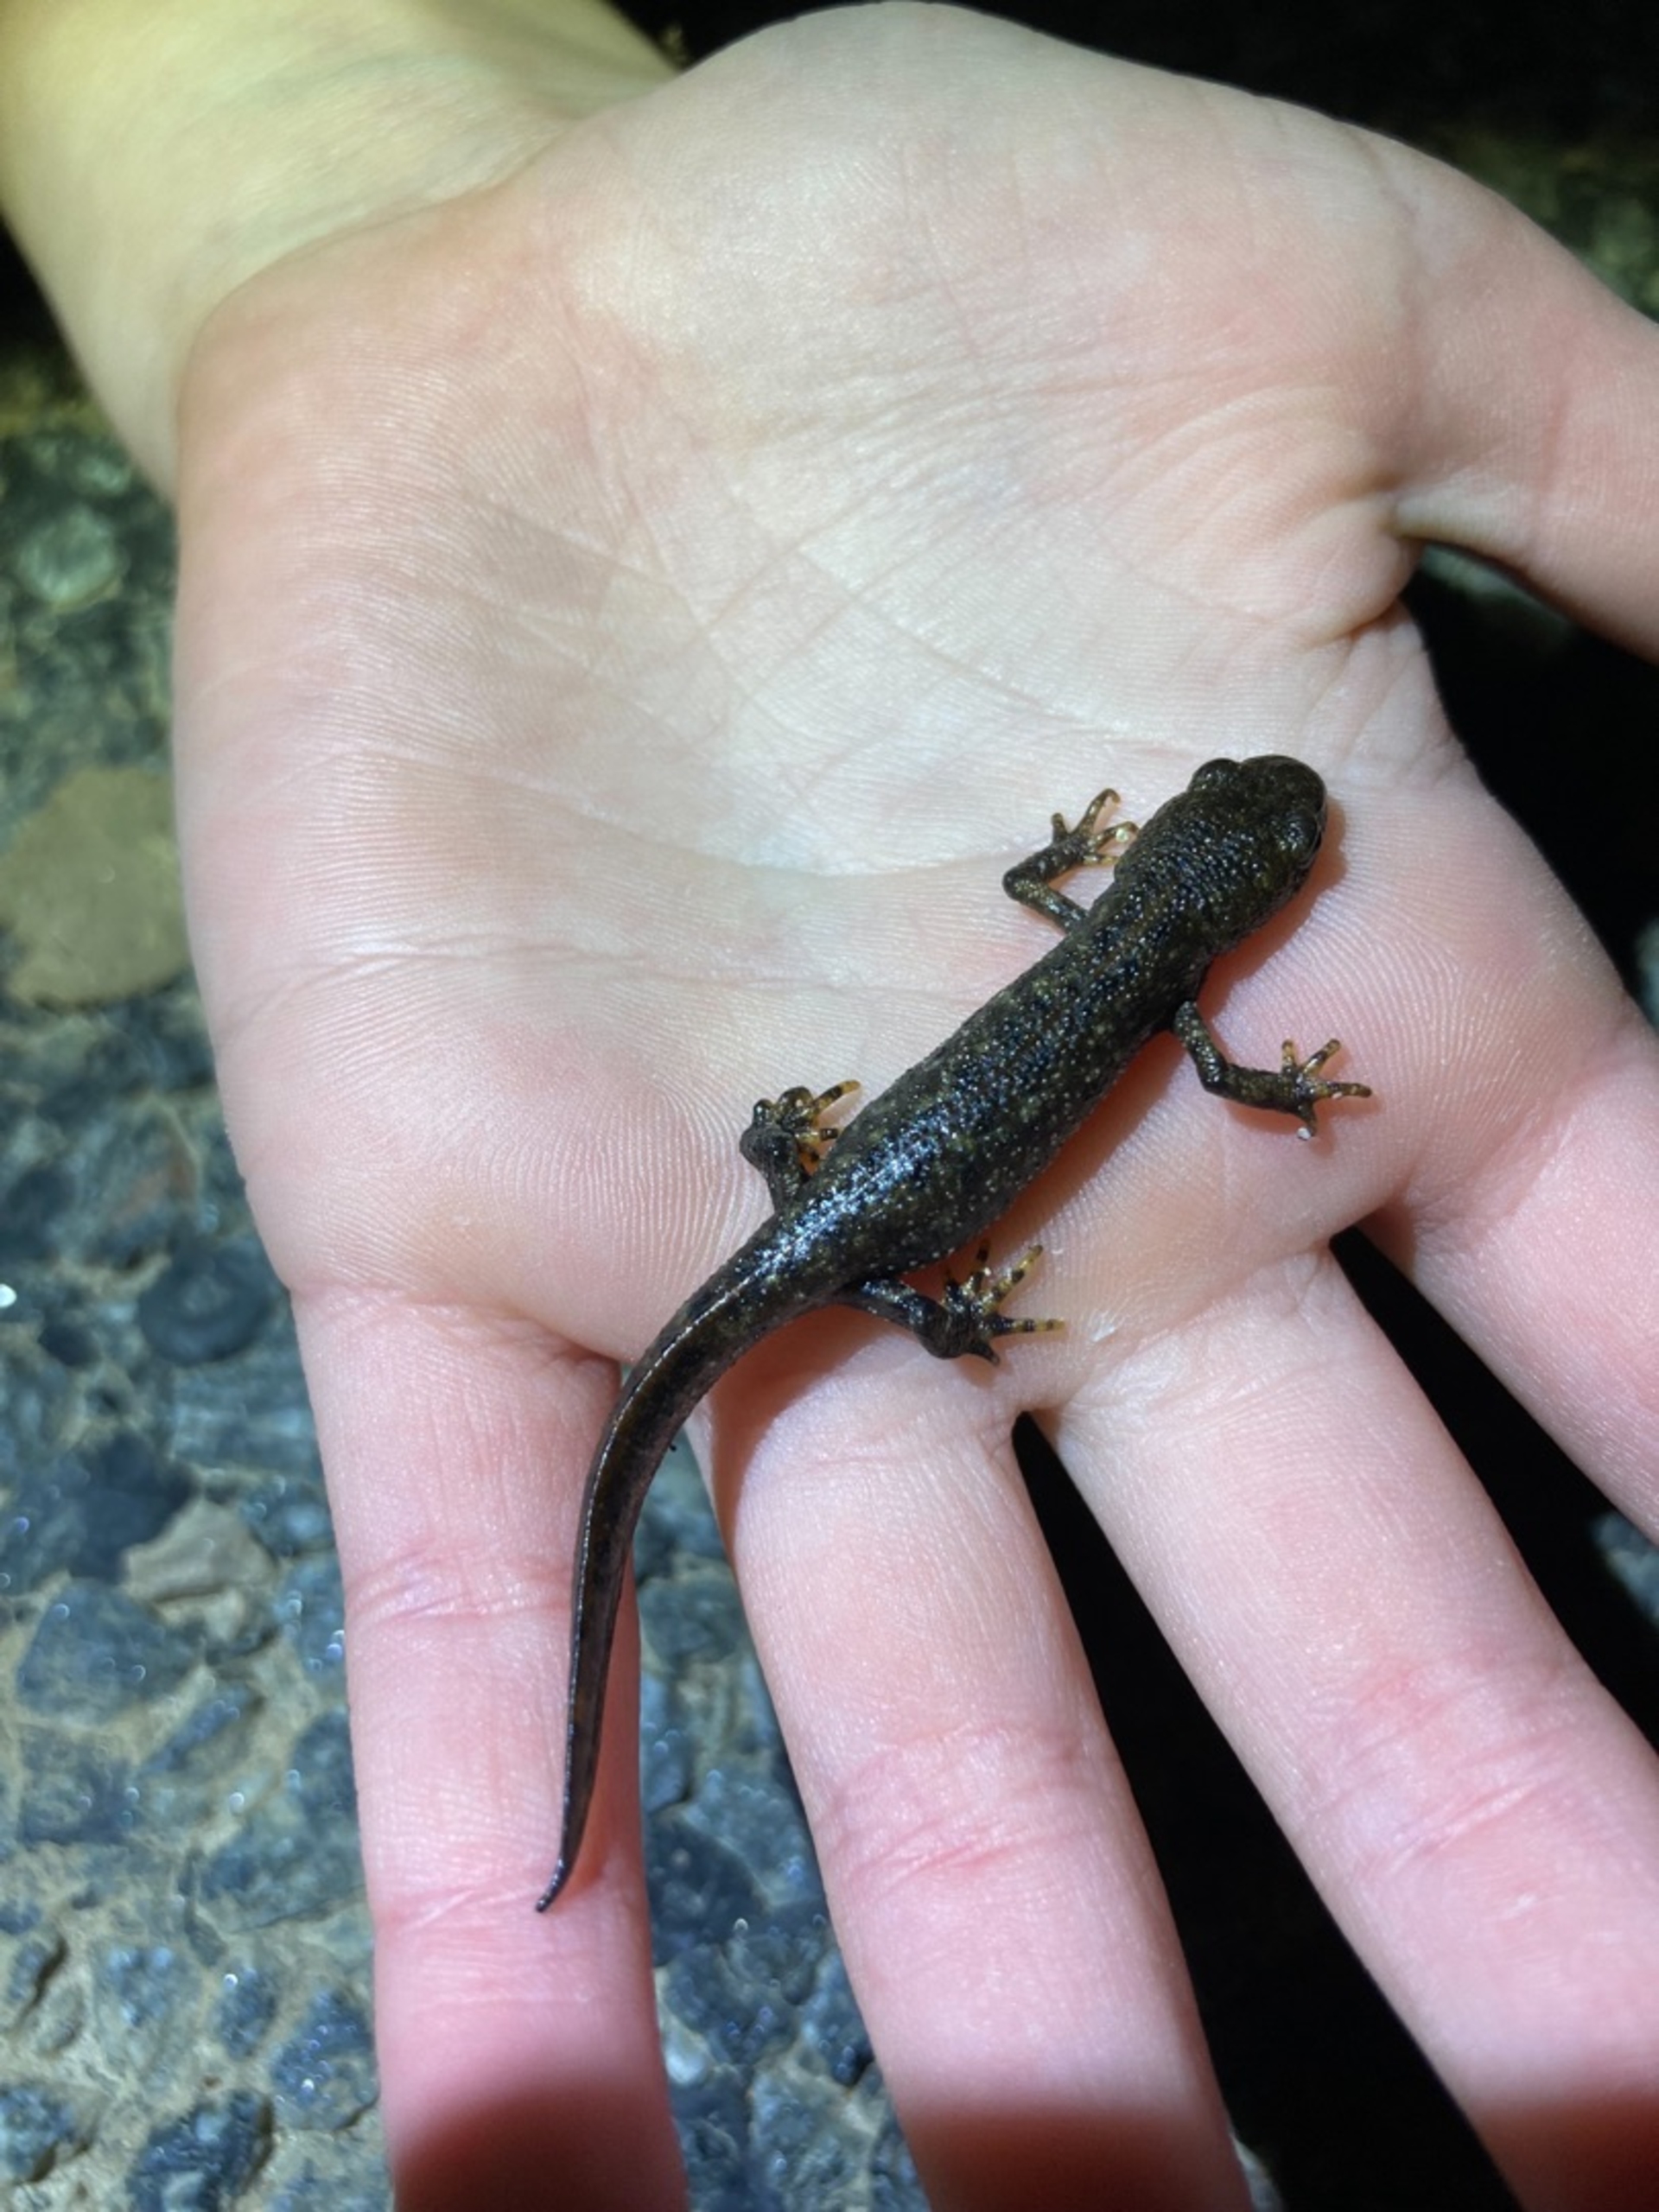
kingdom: Animalia
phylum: Chordata
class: Amphibia
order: Caudata
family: Salamandridae
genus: Triturus
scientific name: Triturus cristatus
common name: Stor vandsalamander
